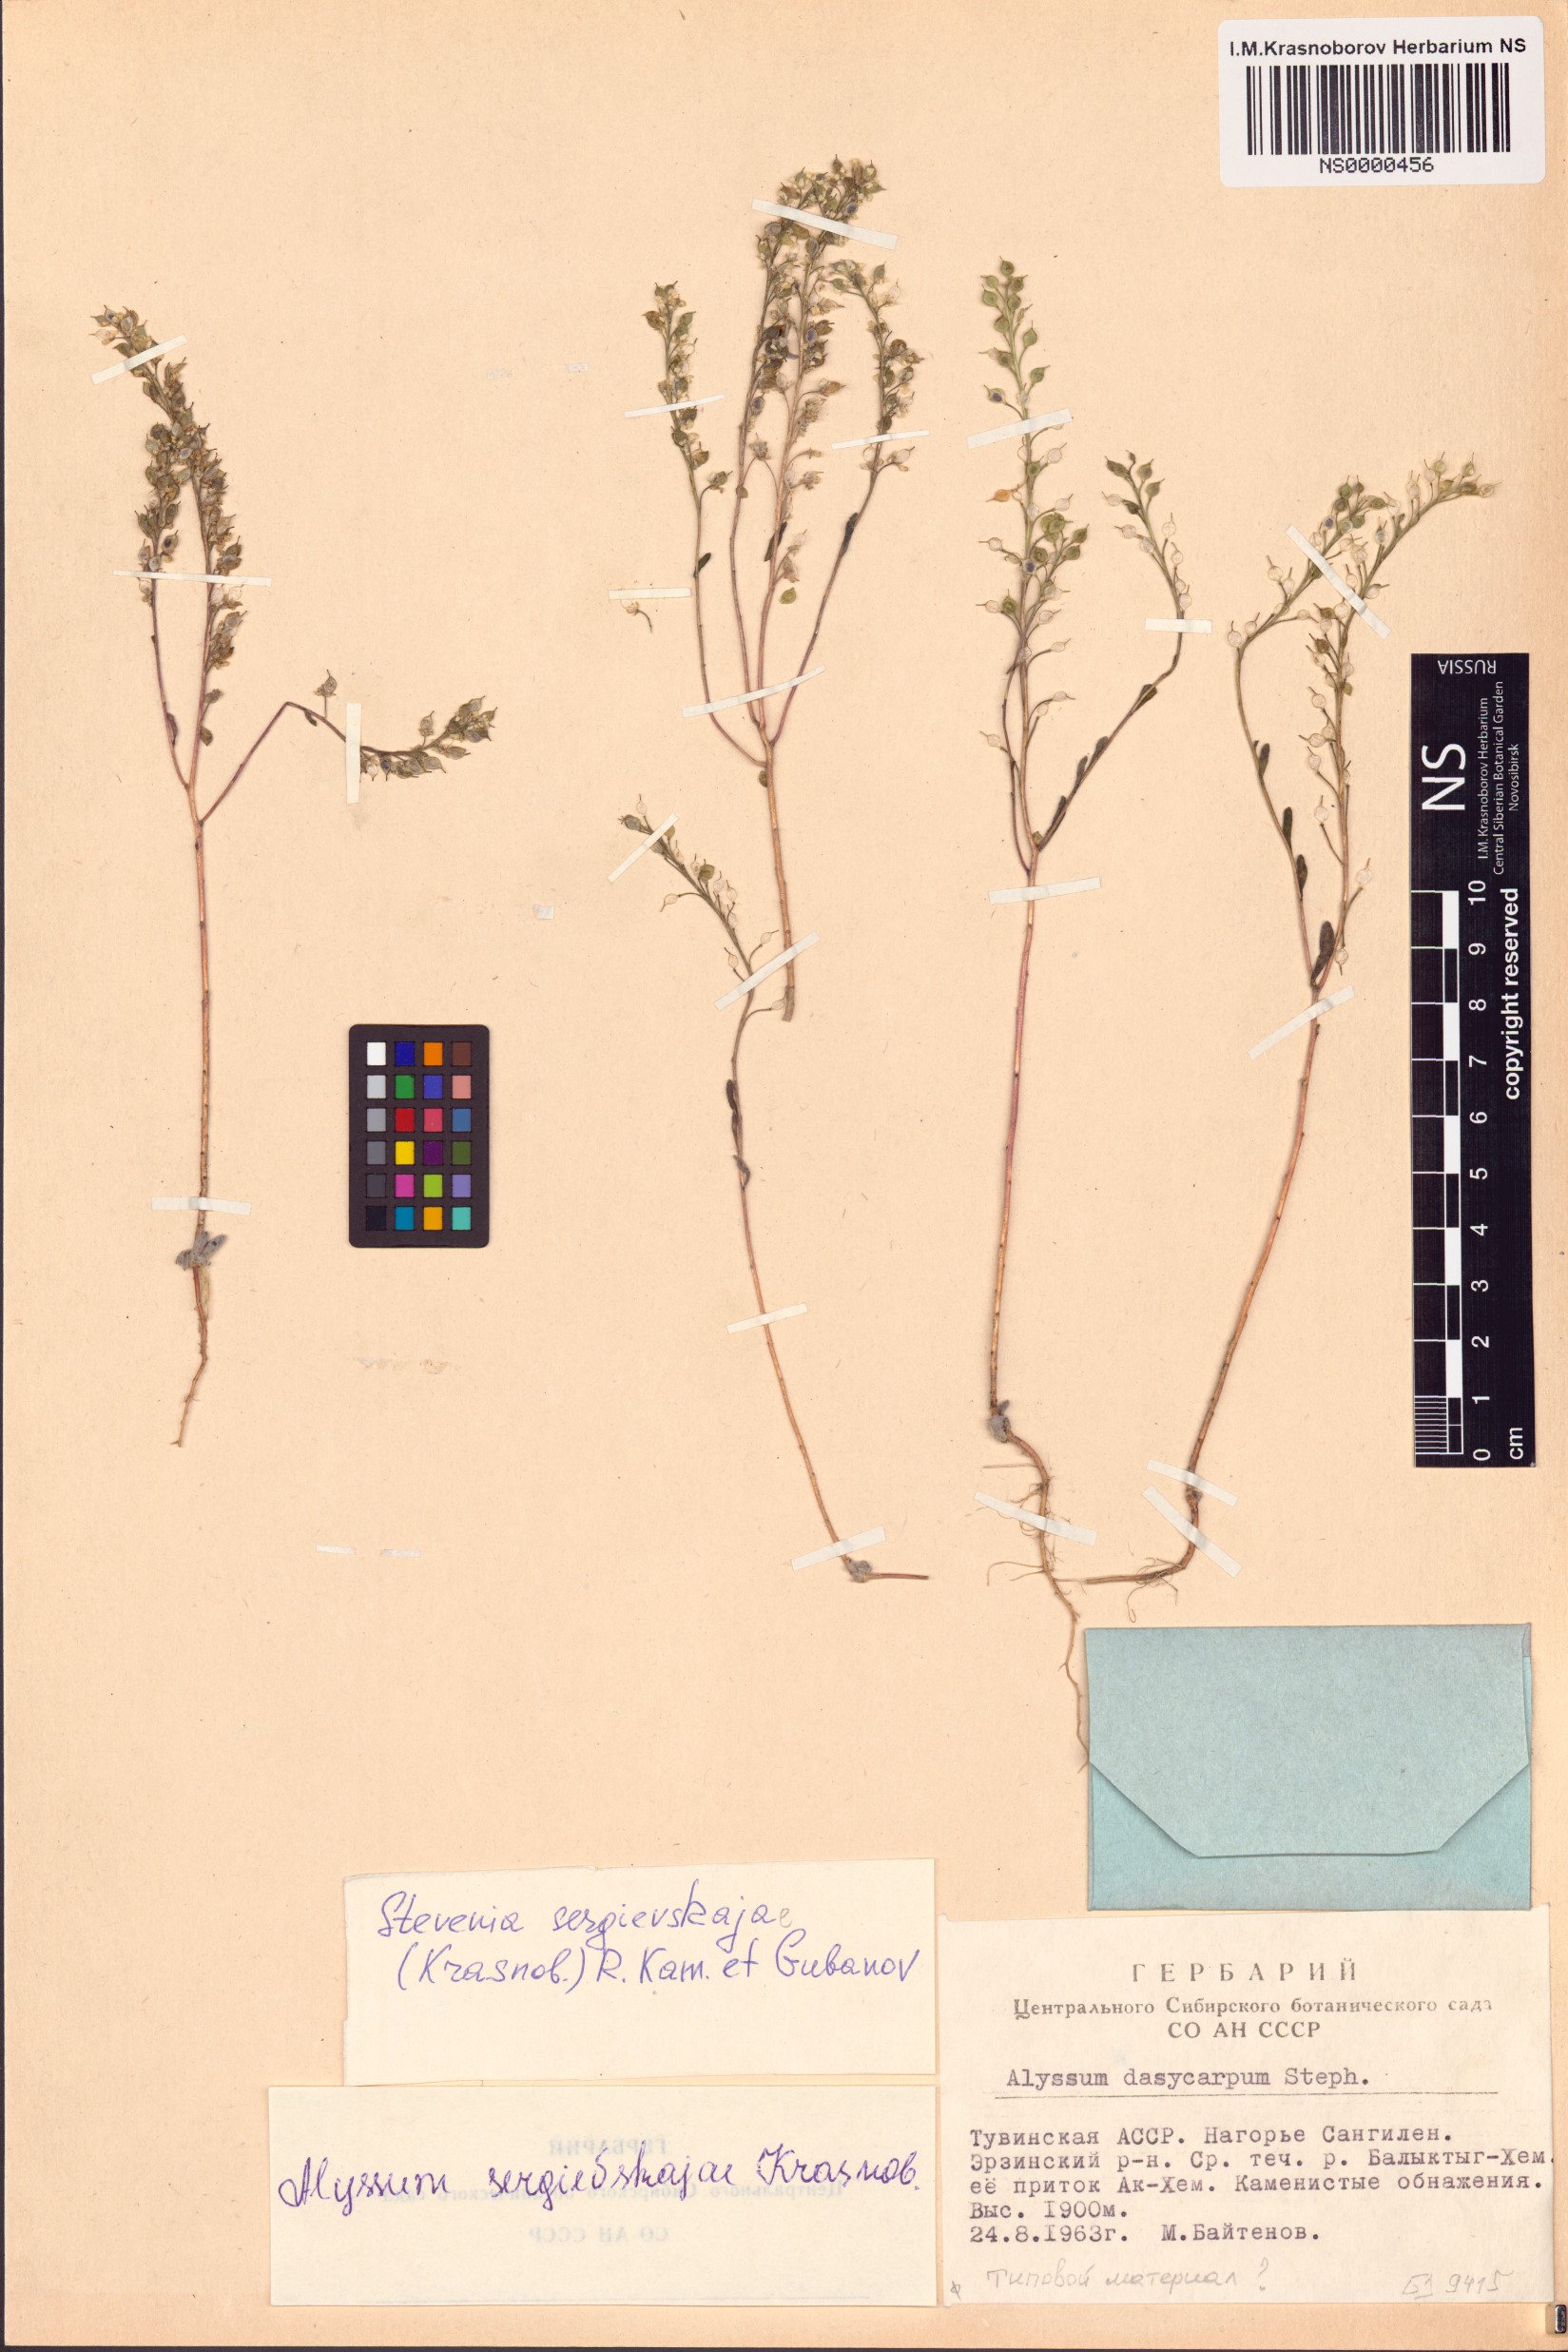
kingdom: Plantae
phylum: Tracheophyta
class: Magnoliopsida
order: Brassicales
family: Brassicaceae
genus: Stevenia
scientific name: Stevenia sergievskajae
